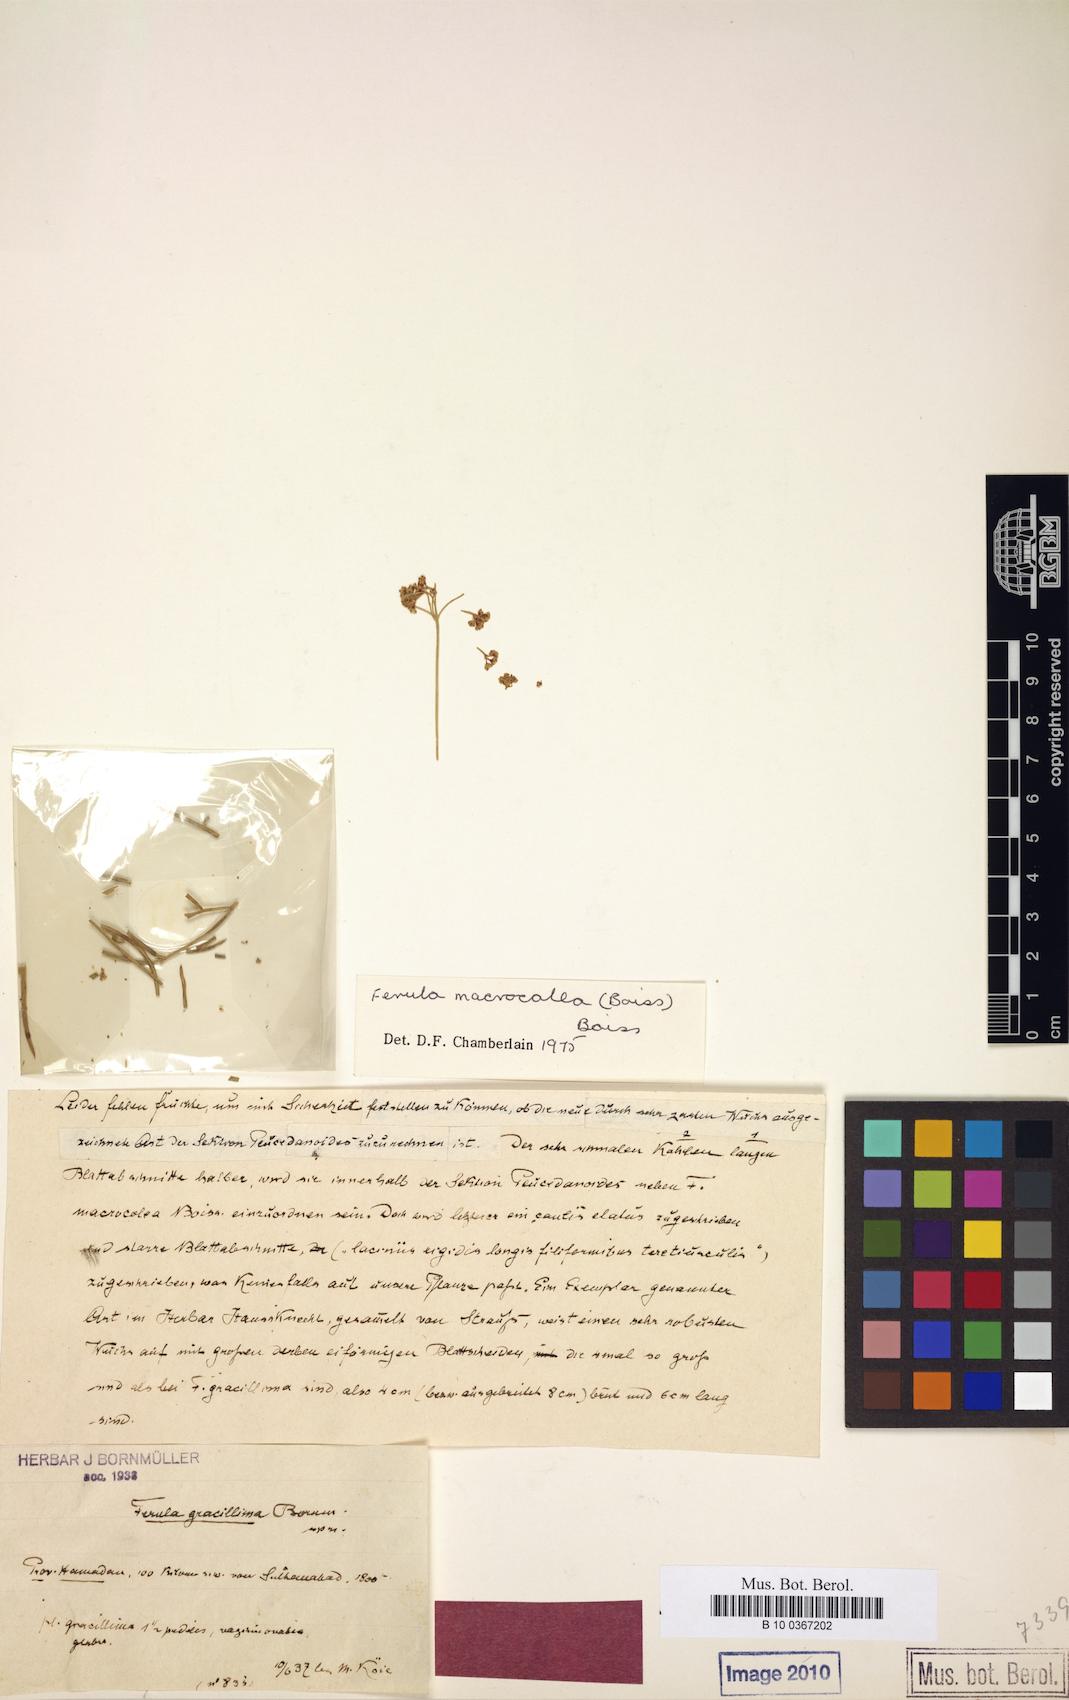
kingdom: Plantae
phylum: Tracheophyta
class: Magnoliopsida
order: Apiales
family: Apiaceae
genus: Ferula
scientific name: Ferula macrocolea
